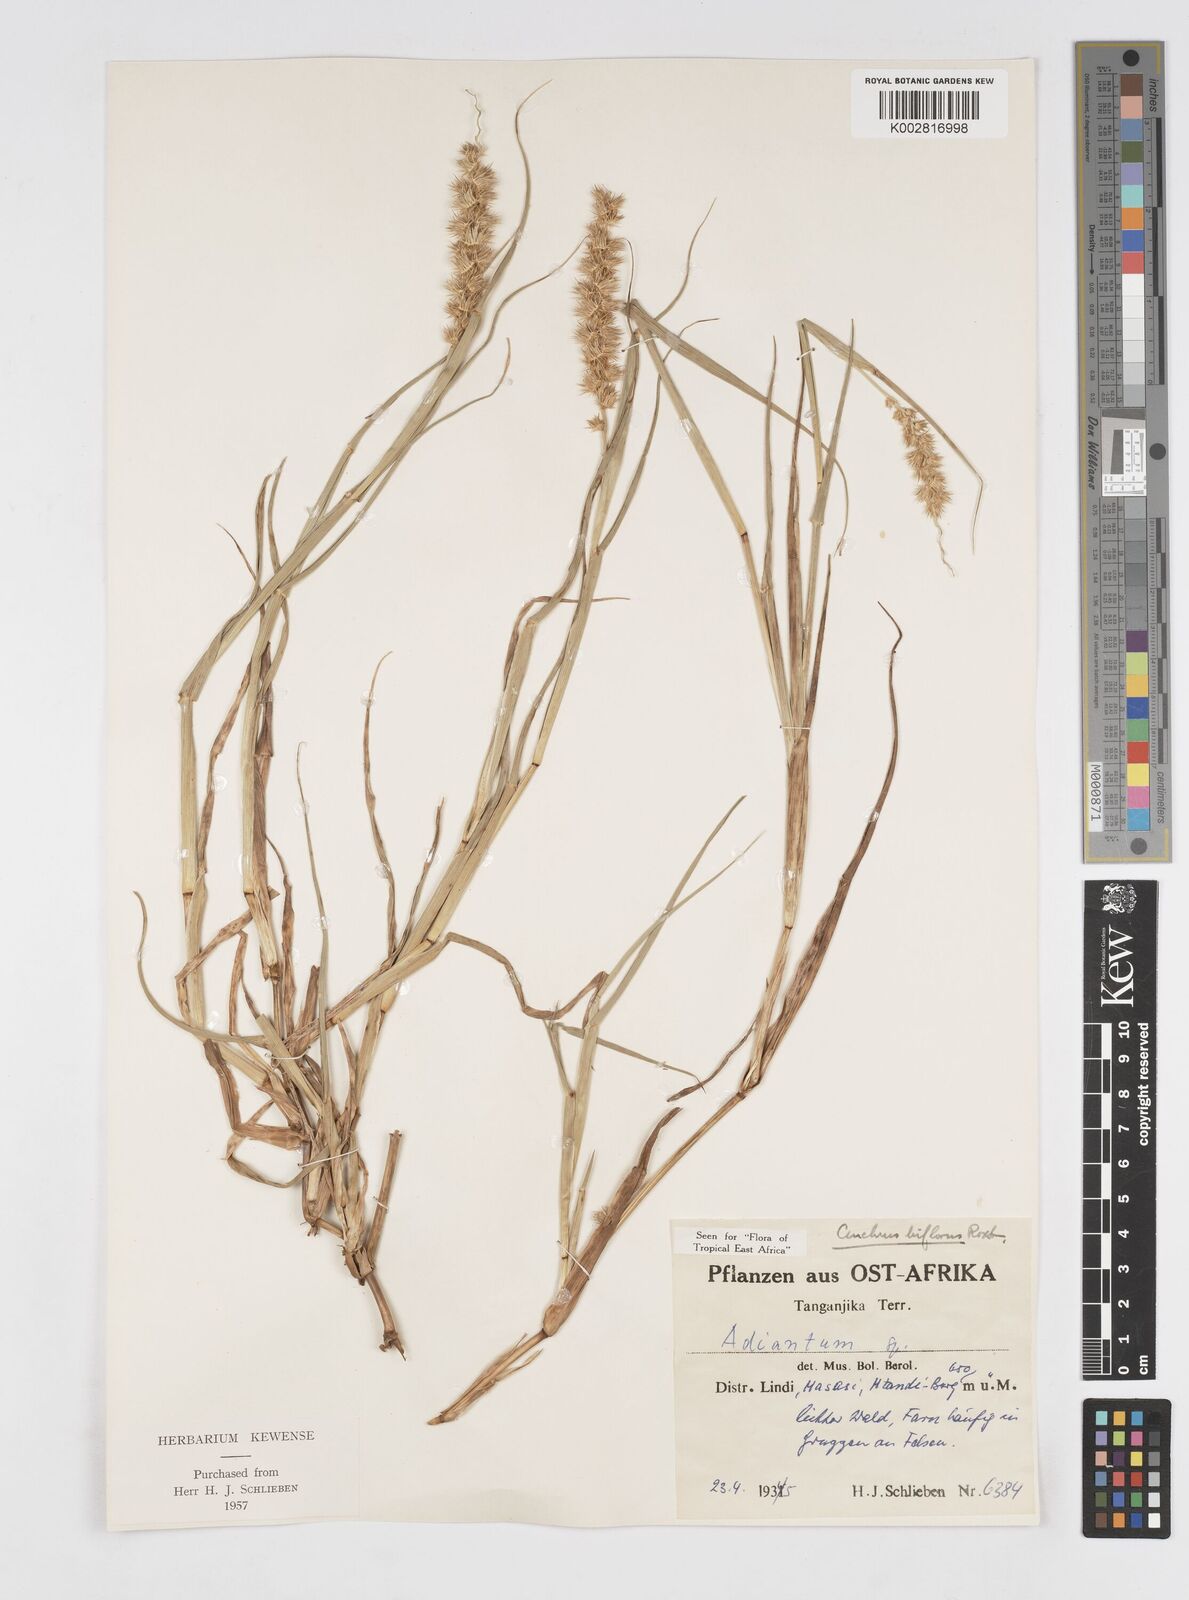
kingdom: Plantae
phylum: Tracheophyta
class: Liliopsida
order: Poales
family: Poaceae
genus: Cenchrus
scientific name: Cenchrus biflorus
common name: Indian sandbur
